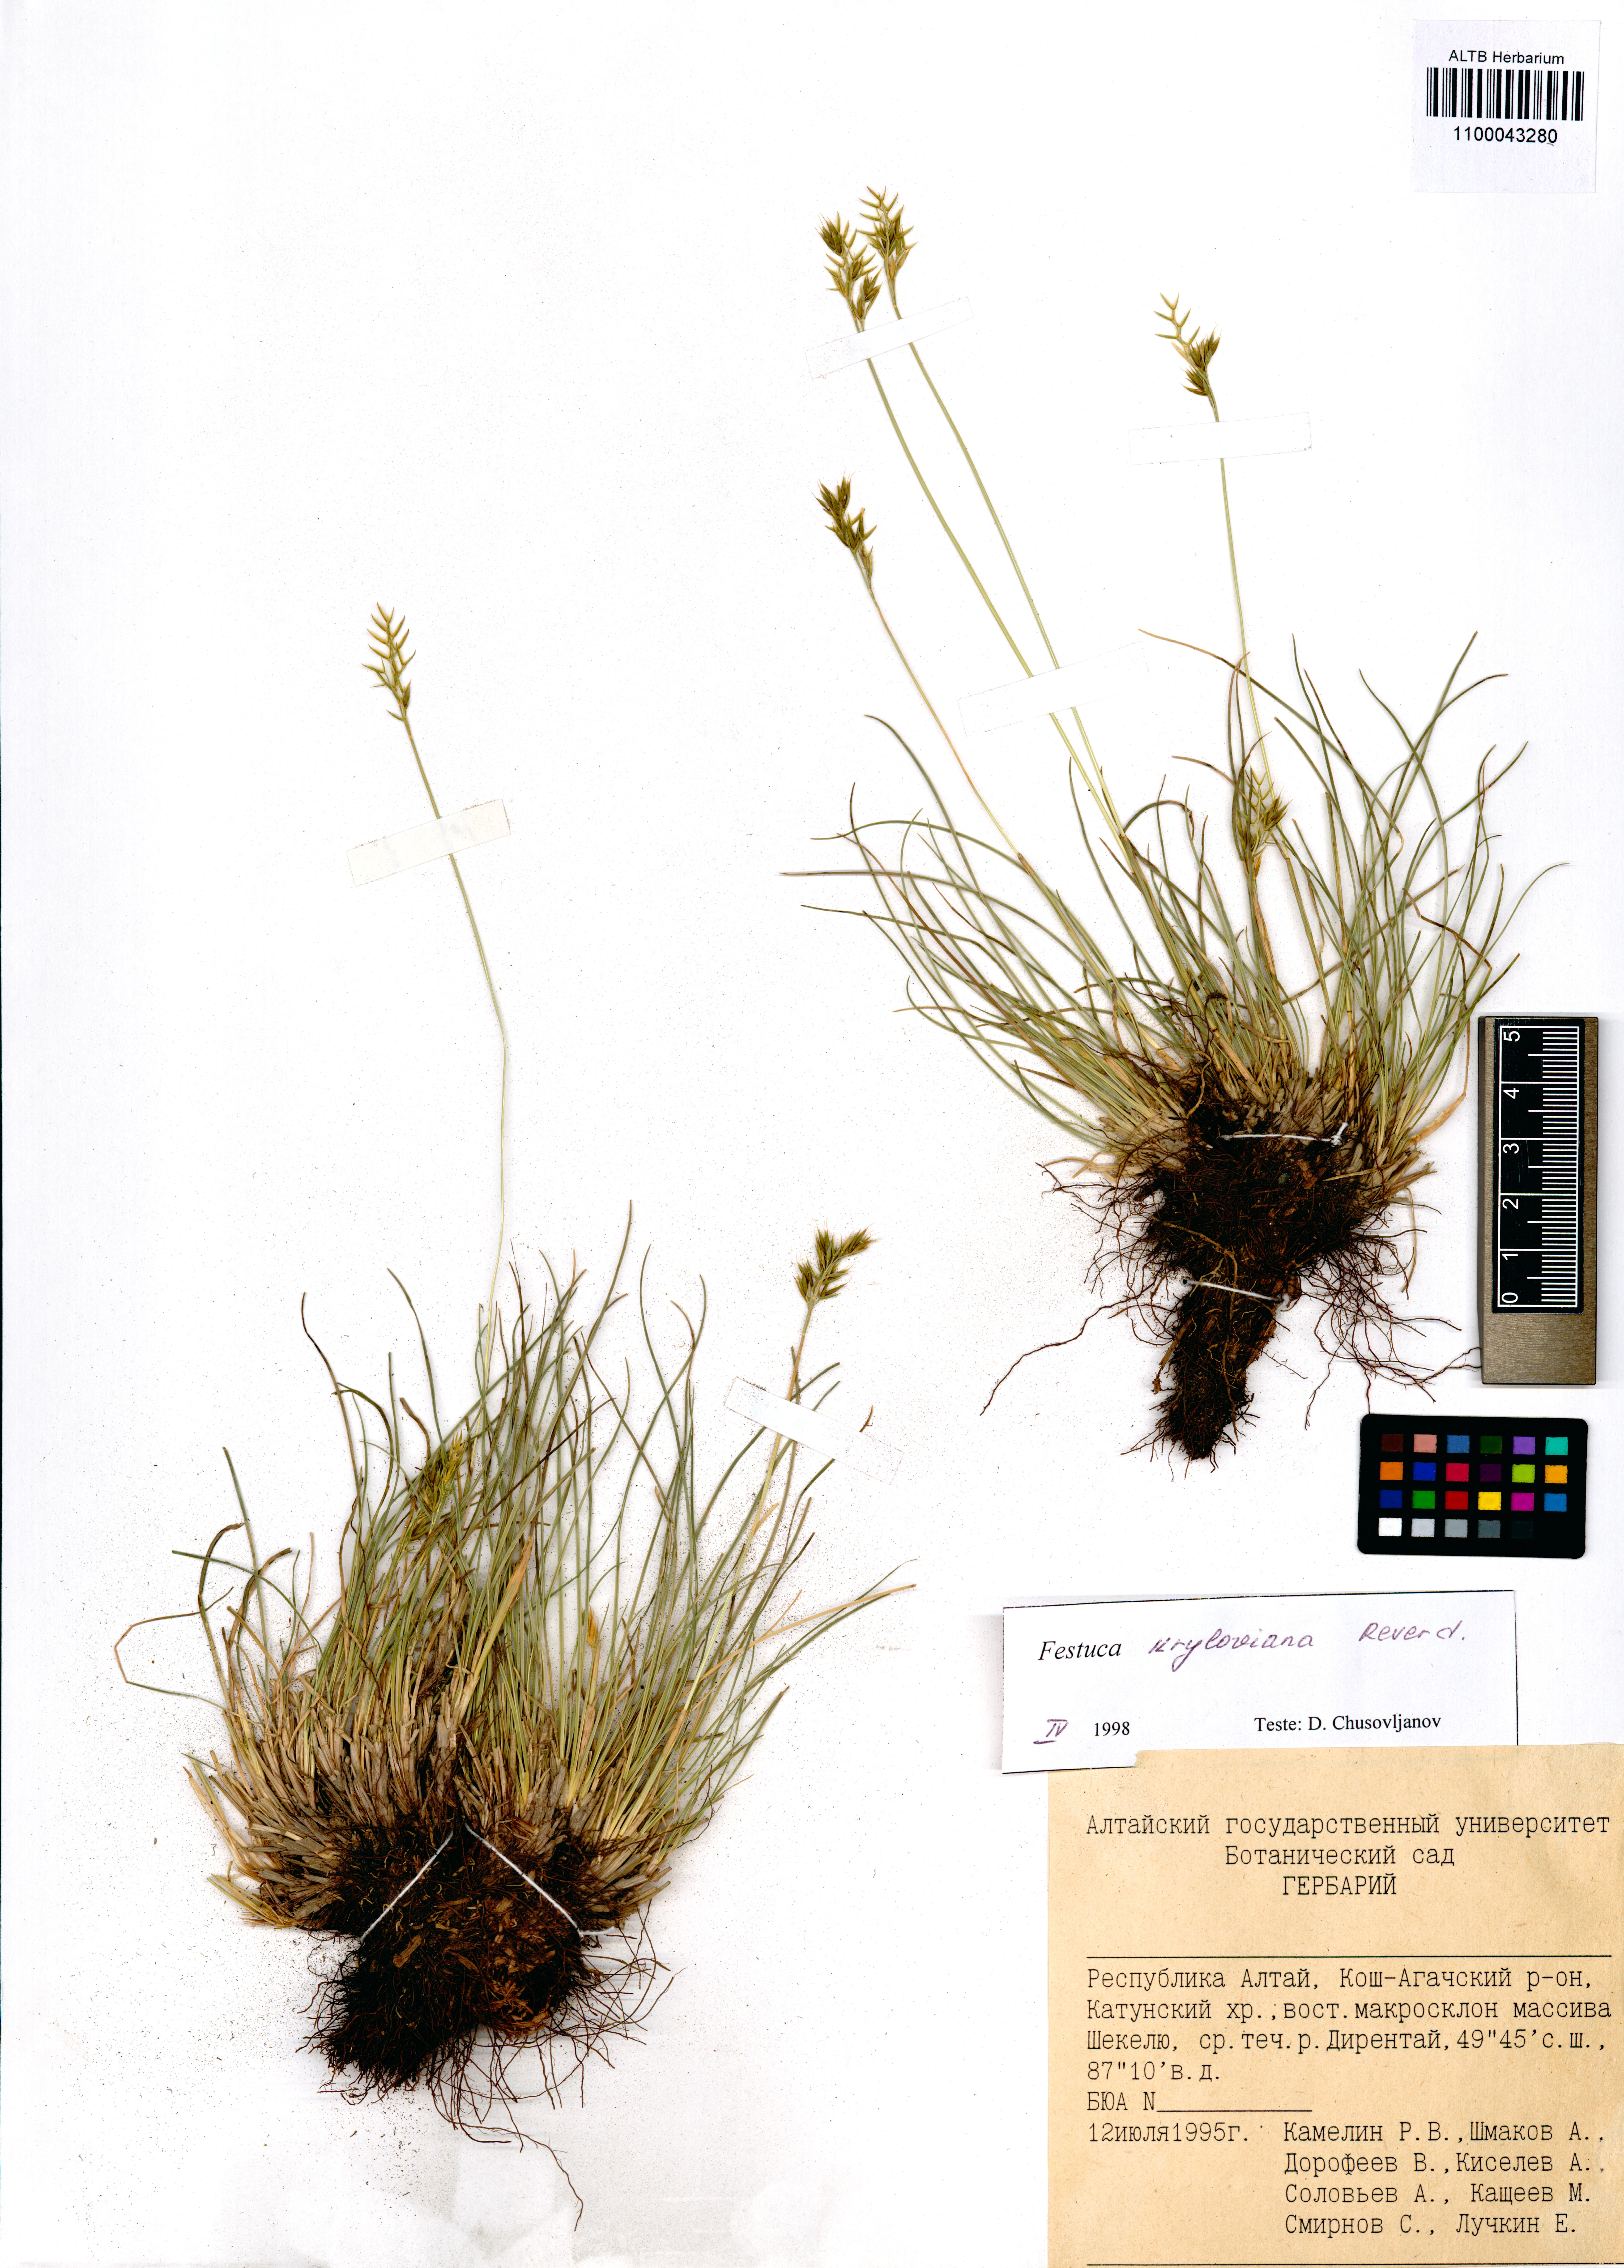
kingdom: Plantae
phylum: Tracheophyta
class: Liliopsida
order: Poales
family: Poaceae
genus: Festuca
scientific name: Festuca kryloviana
